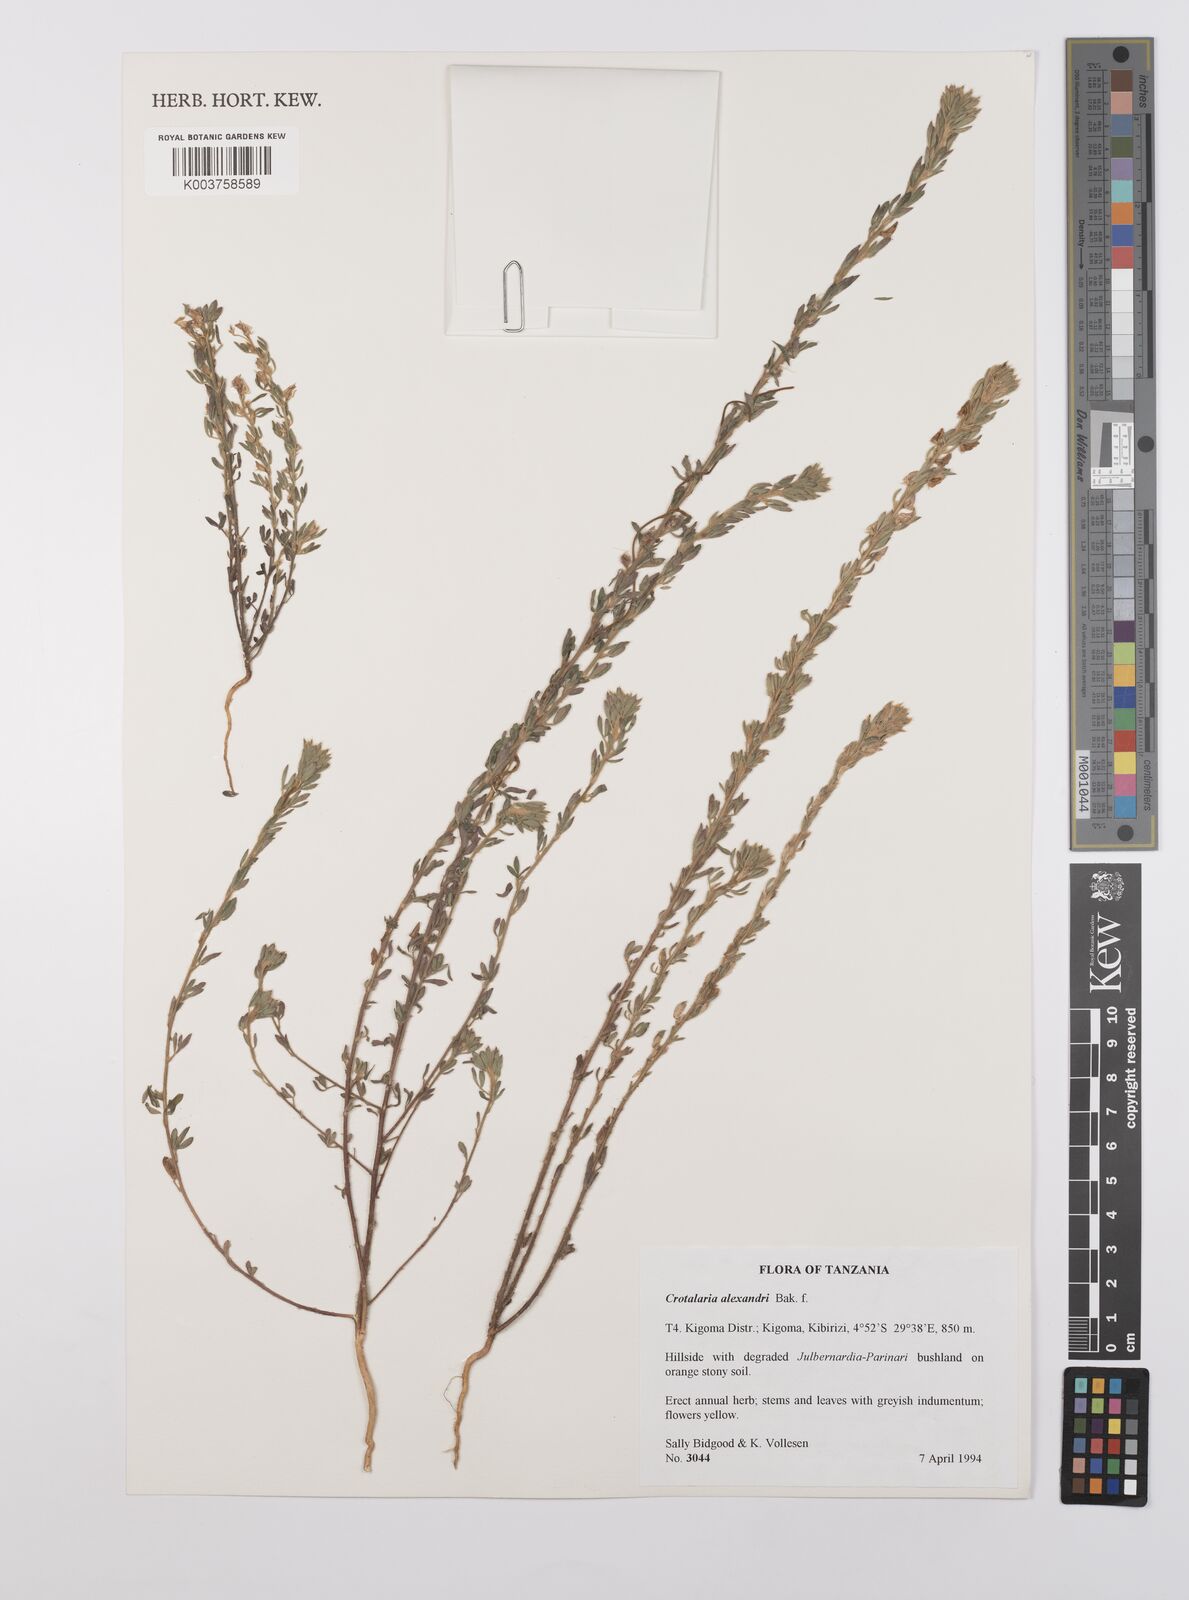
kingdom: Plantae
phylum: Tracheophyta
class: Magnoliopsida
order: Fabales
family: Fabaceae
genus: Crotalaria
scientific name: Crotalaria alexandri
